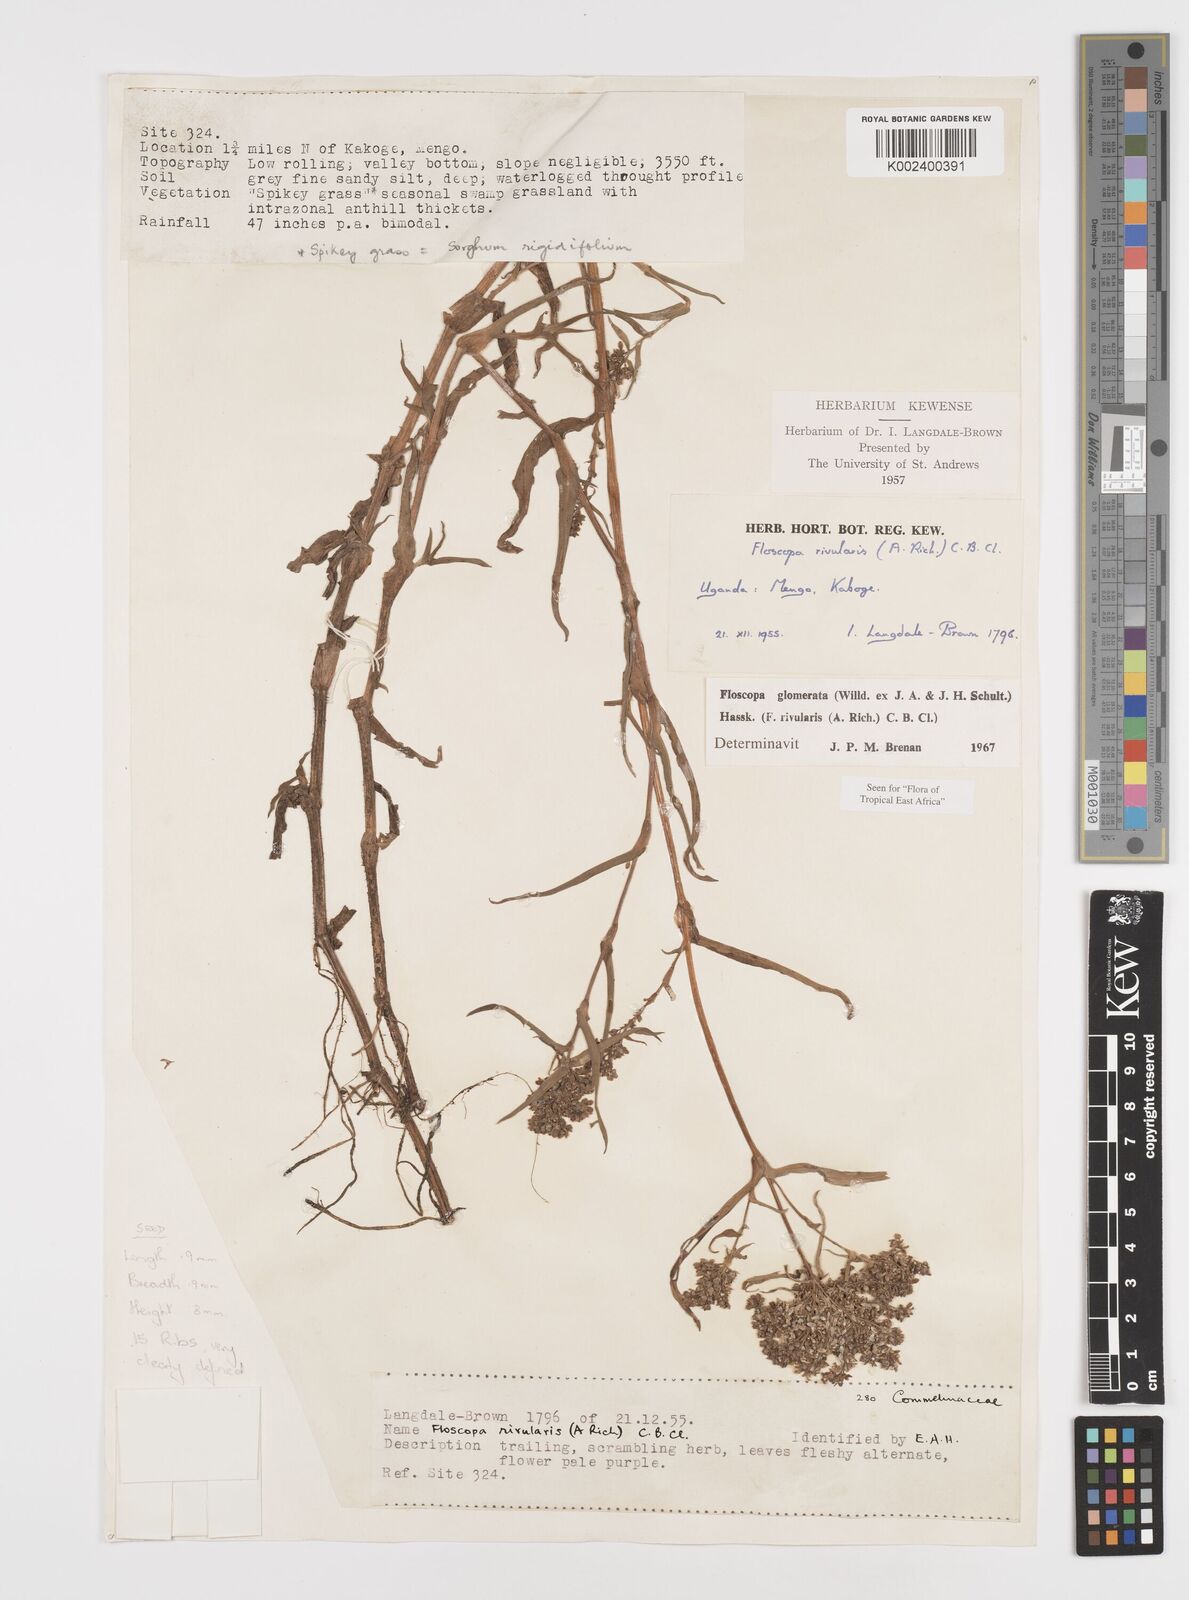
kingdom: Plantae
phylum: Tracheophyta
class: Liliopsida
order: Commelinales
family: Commelinaceae
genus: Floscopa
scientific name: Floscopa glomerata
